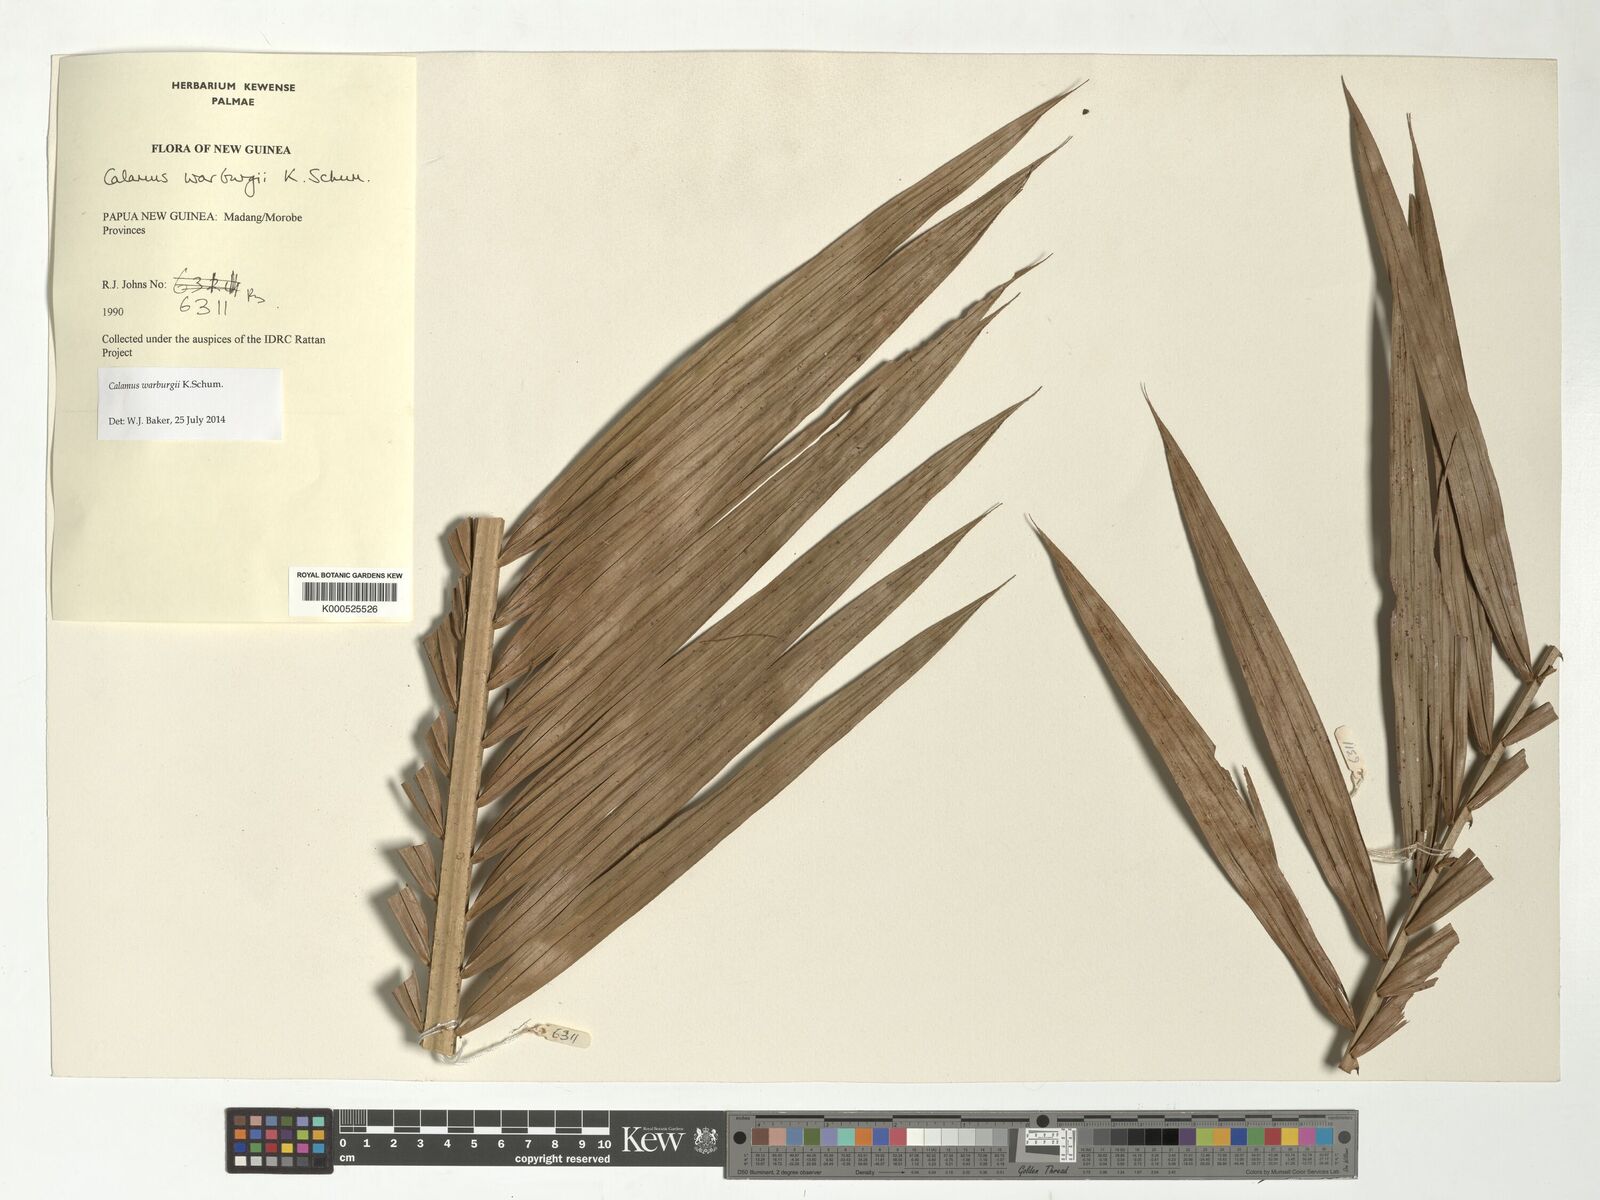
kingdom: Plantae
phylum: Tracheophyta
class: Liliopsida
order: Arecales
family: Arecaceae
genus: Calamus
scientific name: Calamus warburgii
